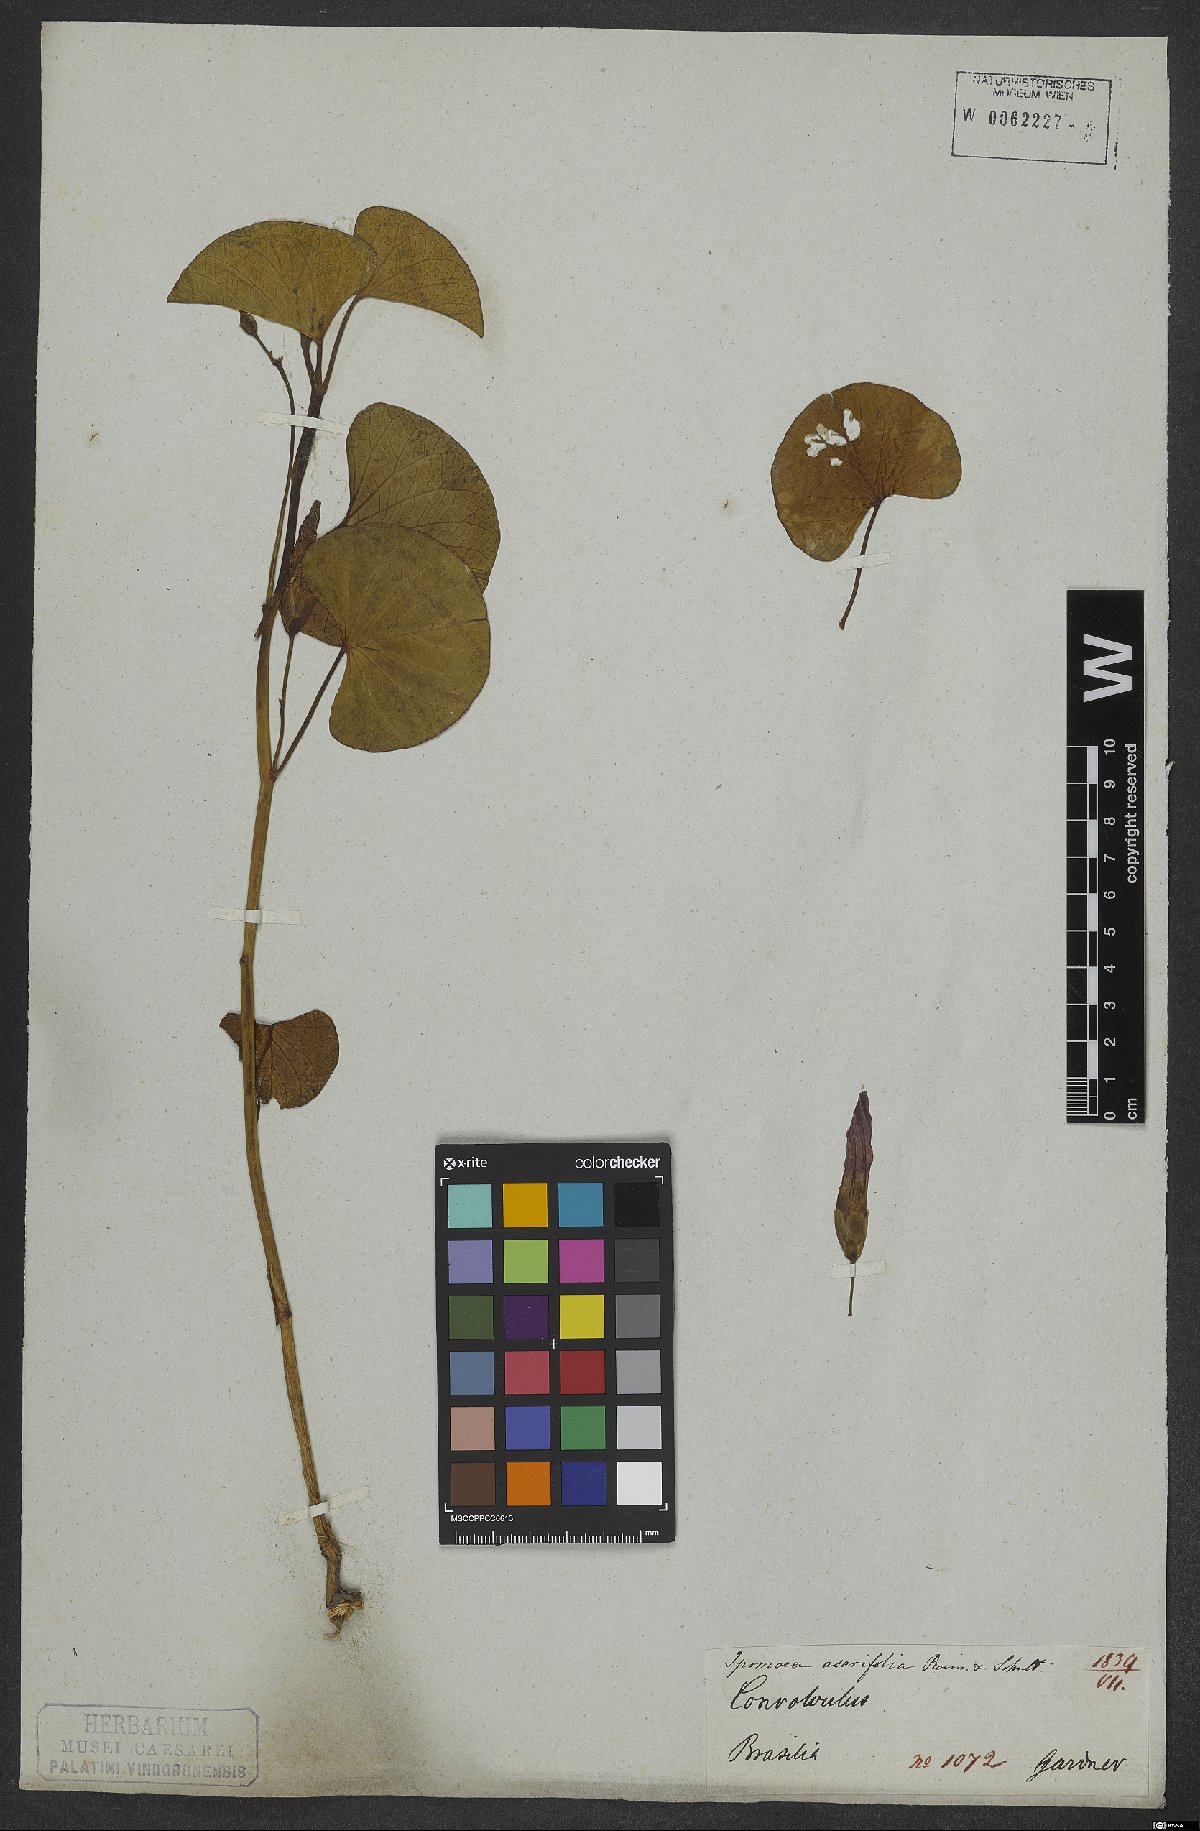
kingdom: Plantae
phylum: Tracheophyta
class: Magnoliopsida
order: Solanales
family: Convolvulaceae
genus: Ipomoea
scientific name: Ipomoea asarifolia
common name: Ginger-leaf morning-glory
